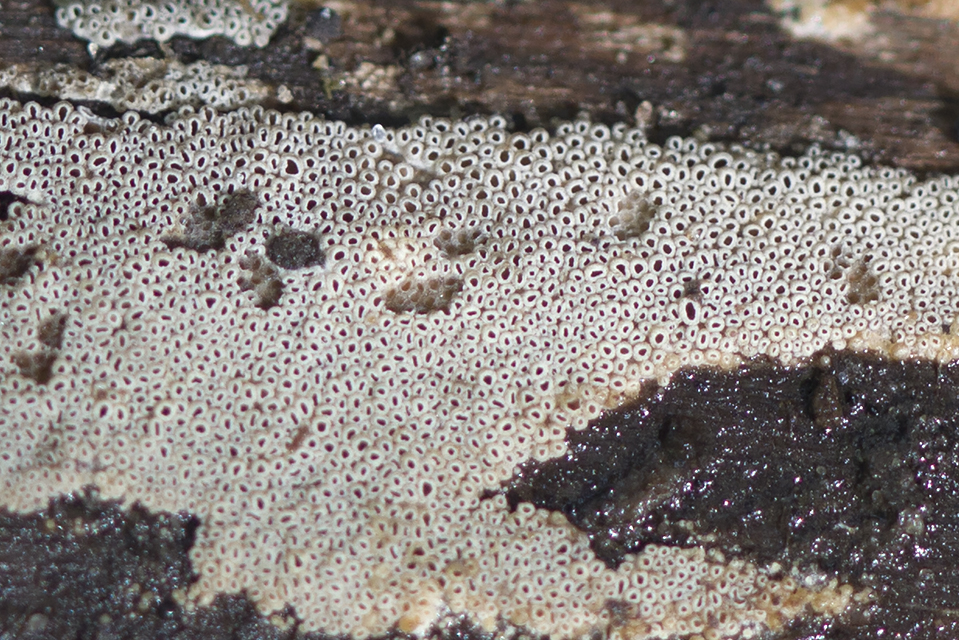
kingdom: Fungi
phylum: Basidiomycota
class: Agaricomycetes
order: Agaricales
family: Pleurotaceae
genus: Resupinatus
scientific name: Resupinatus poriaeformis
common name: tæpperør
